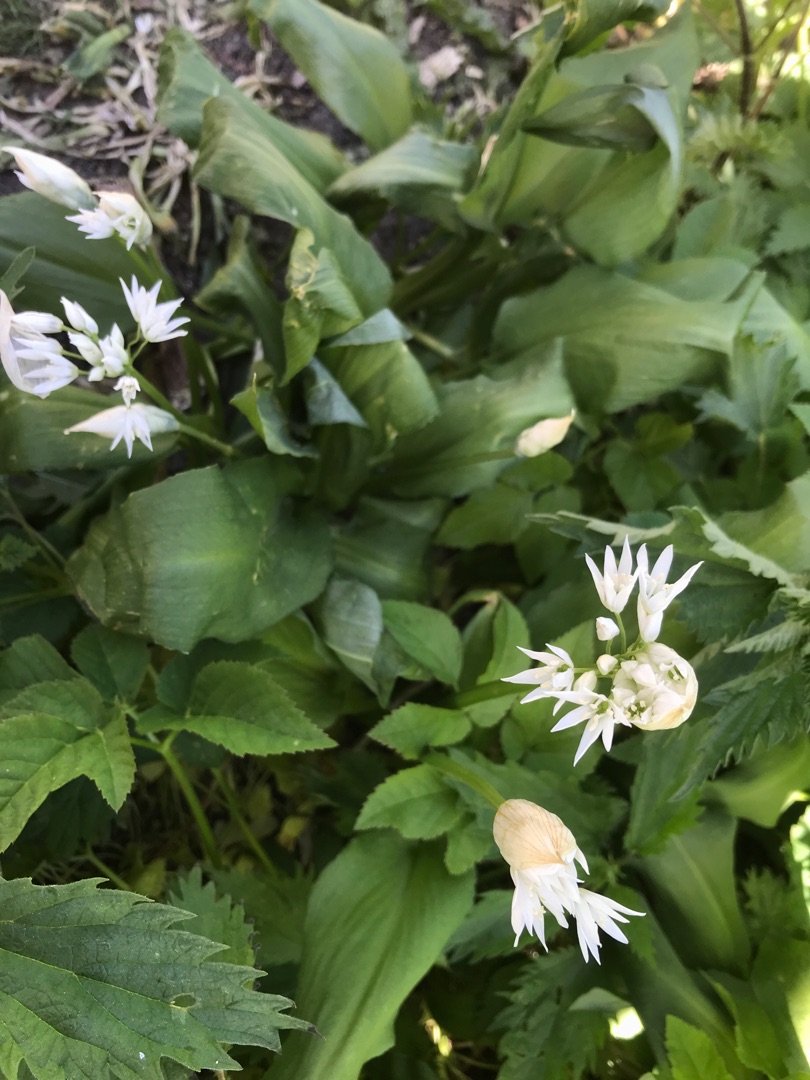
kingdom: Plantae
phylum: Tracheophyta
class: Liliopsida
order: Asparagales
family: Amaryllidaceae
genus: Allium
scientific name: Allium ursinum
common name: Rams-løg
